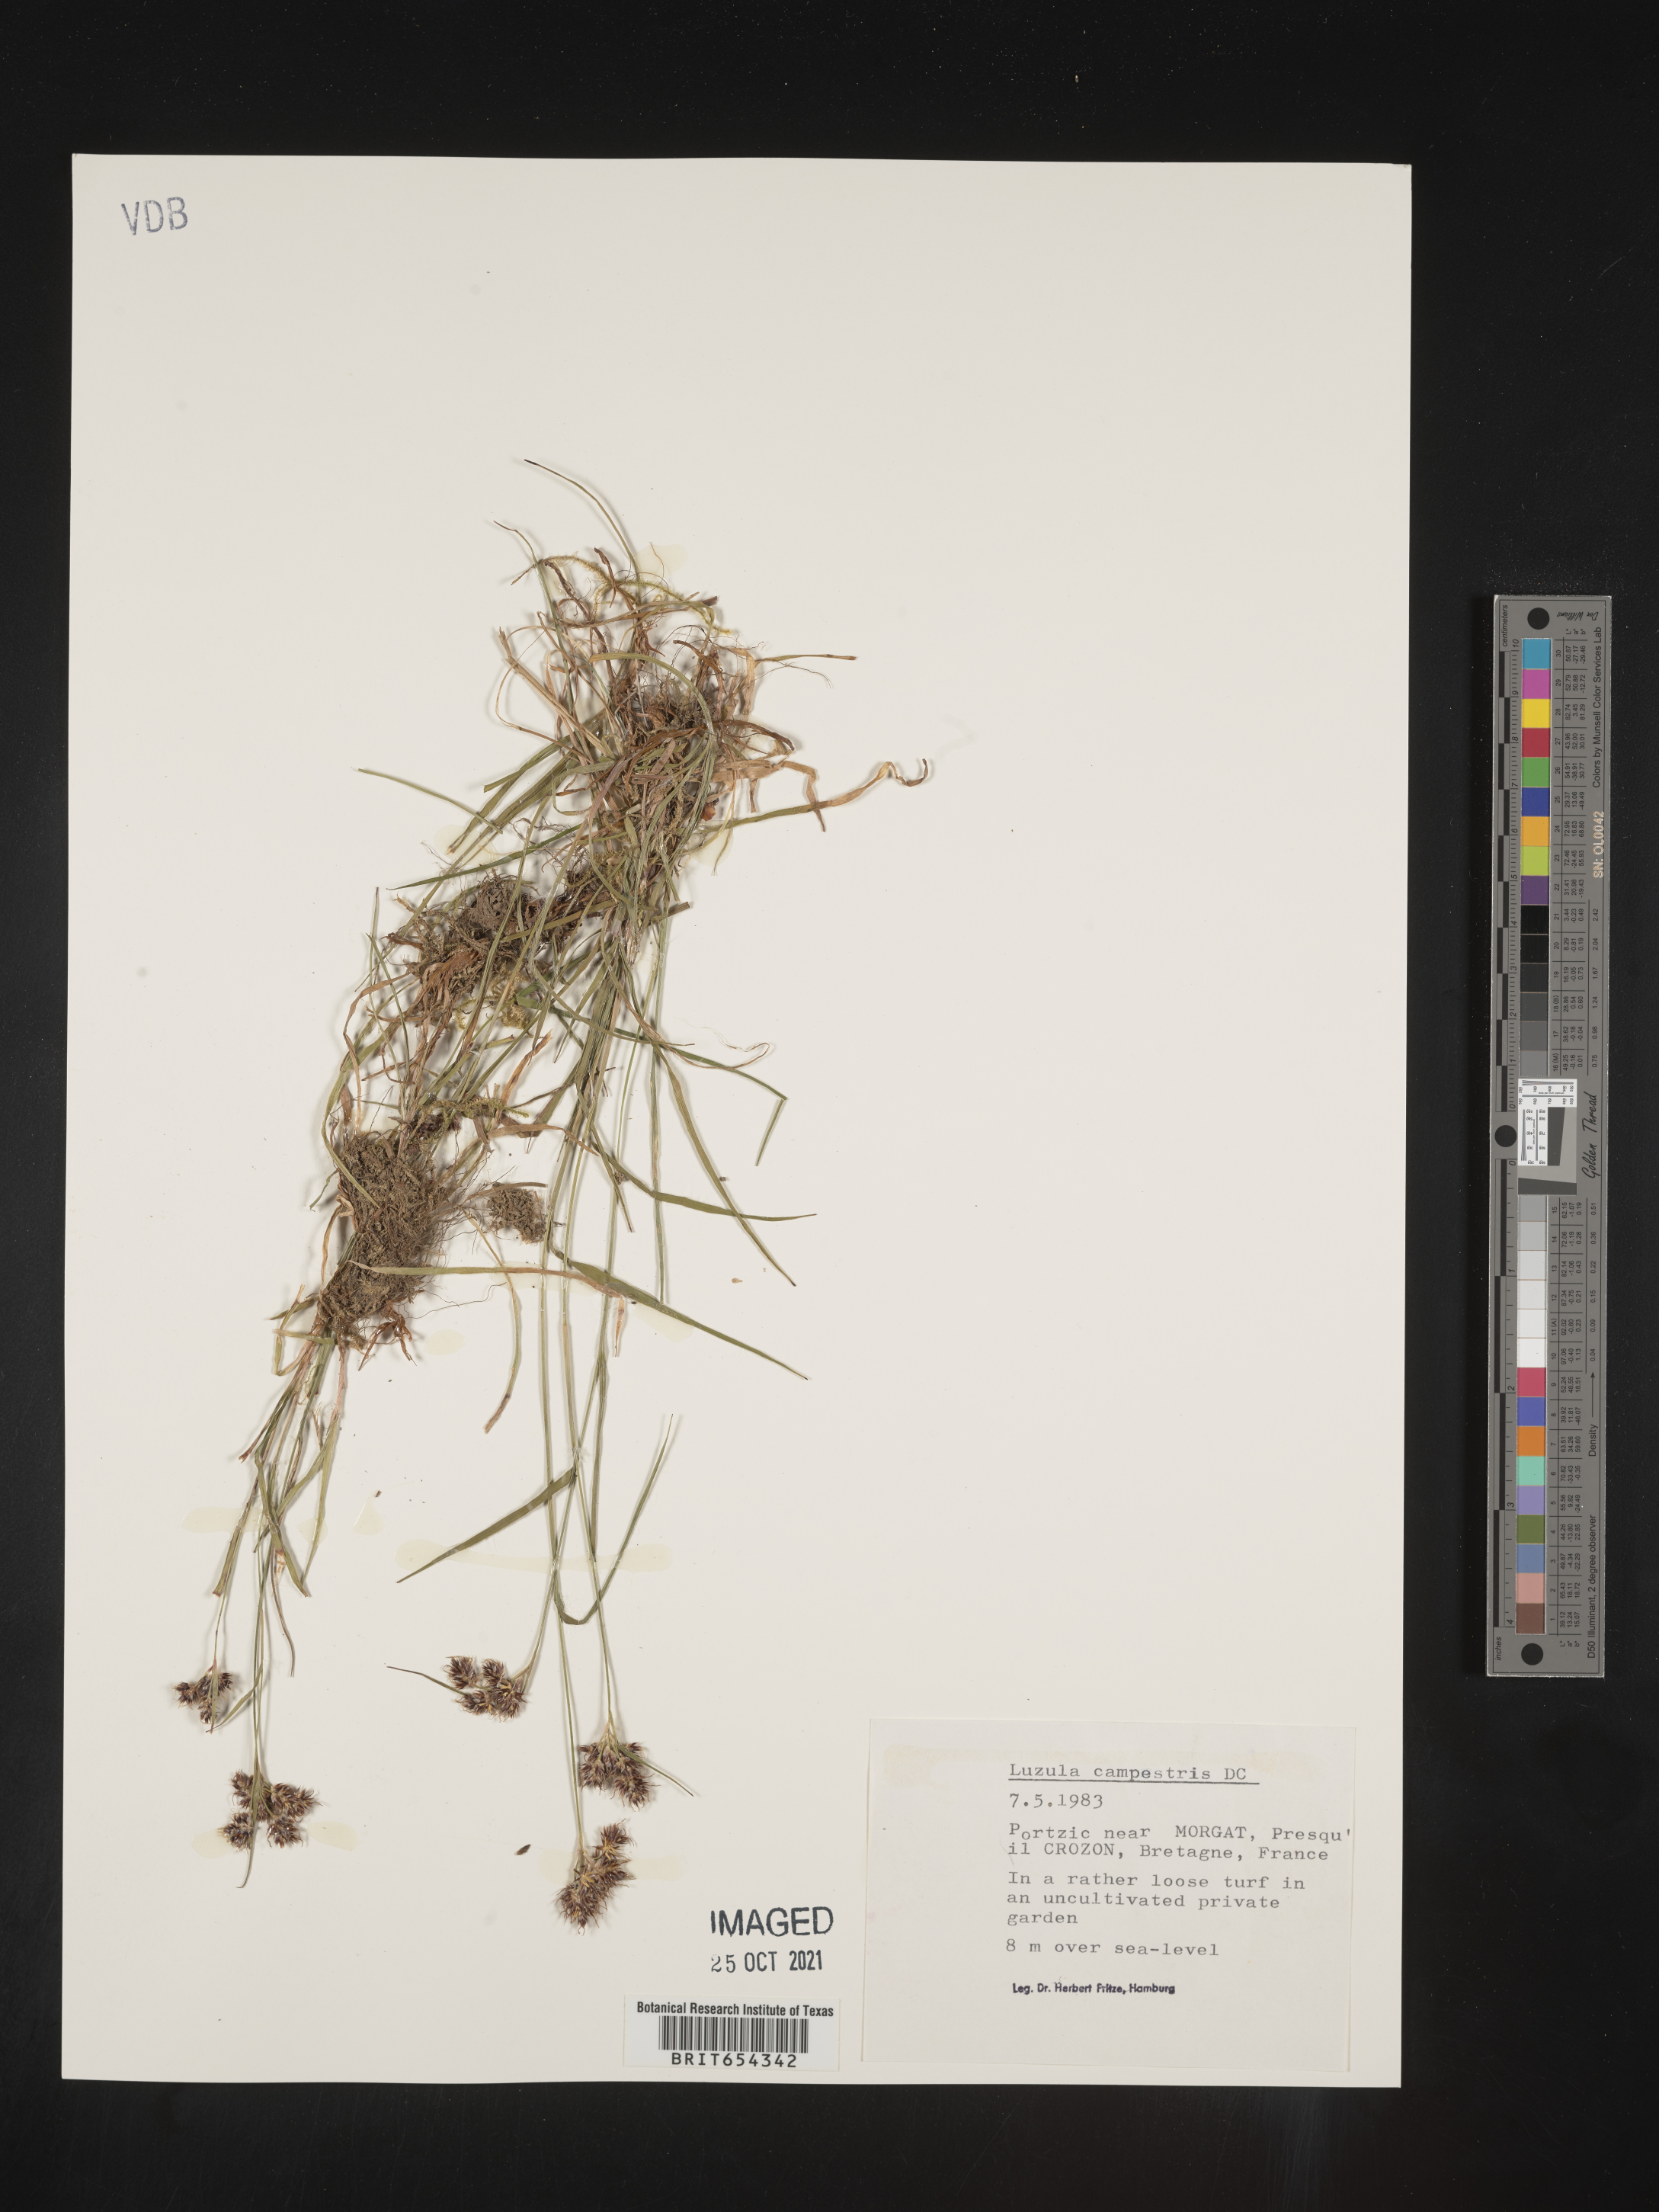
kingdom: Plantae
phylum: Tracheophyta
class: Liliopsida
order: Poales
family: Juncaceae
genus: Luzula
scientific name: Luzula
